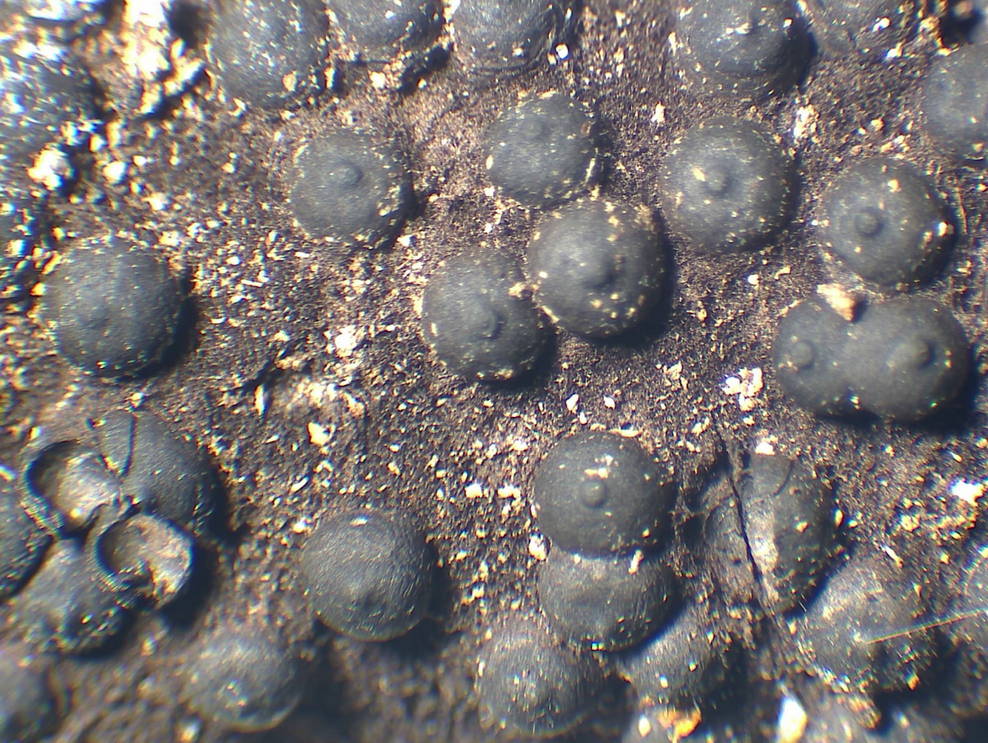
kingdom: Fungi
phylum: Ascomycota
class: Sordariomycetes
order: Xylariales
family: Xylariaceae
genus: Rosellinia
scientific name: Rosellinia aquila
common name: tykskallet kulkaviar
